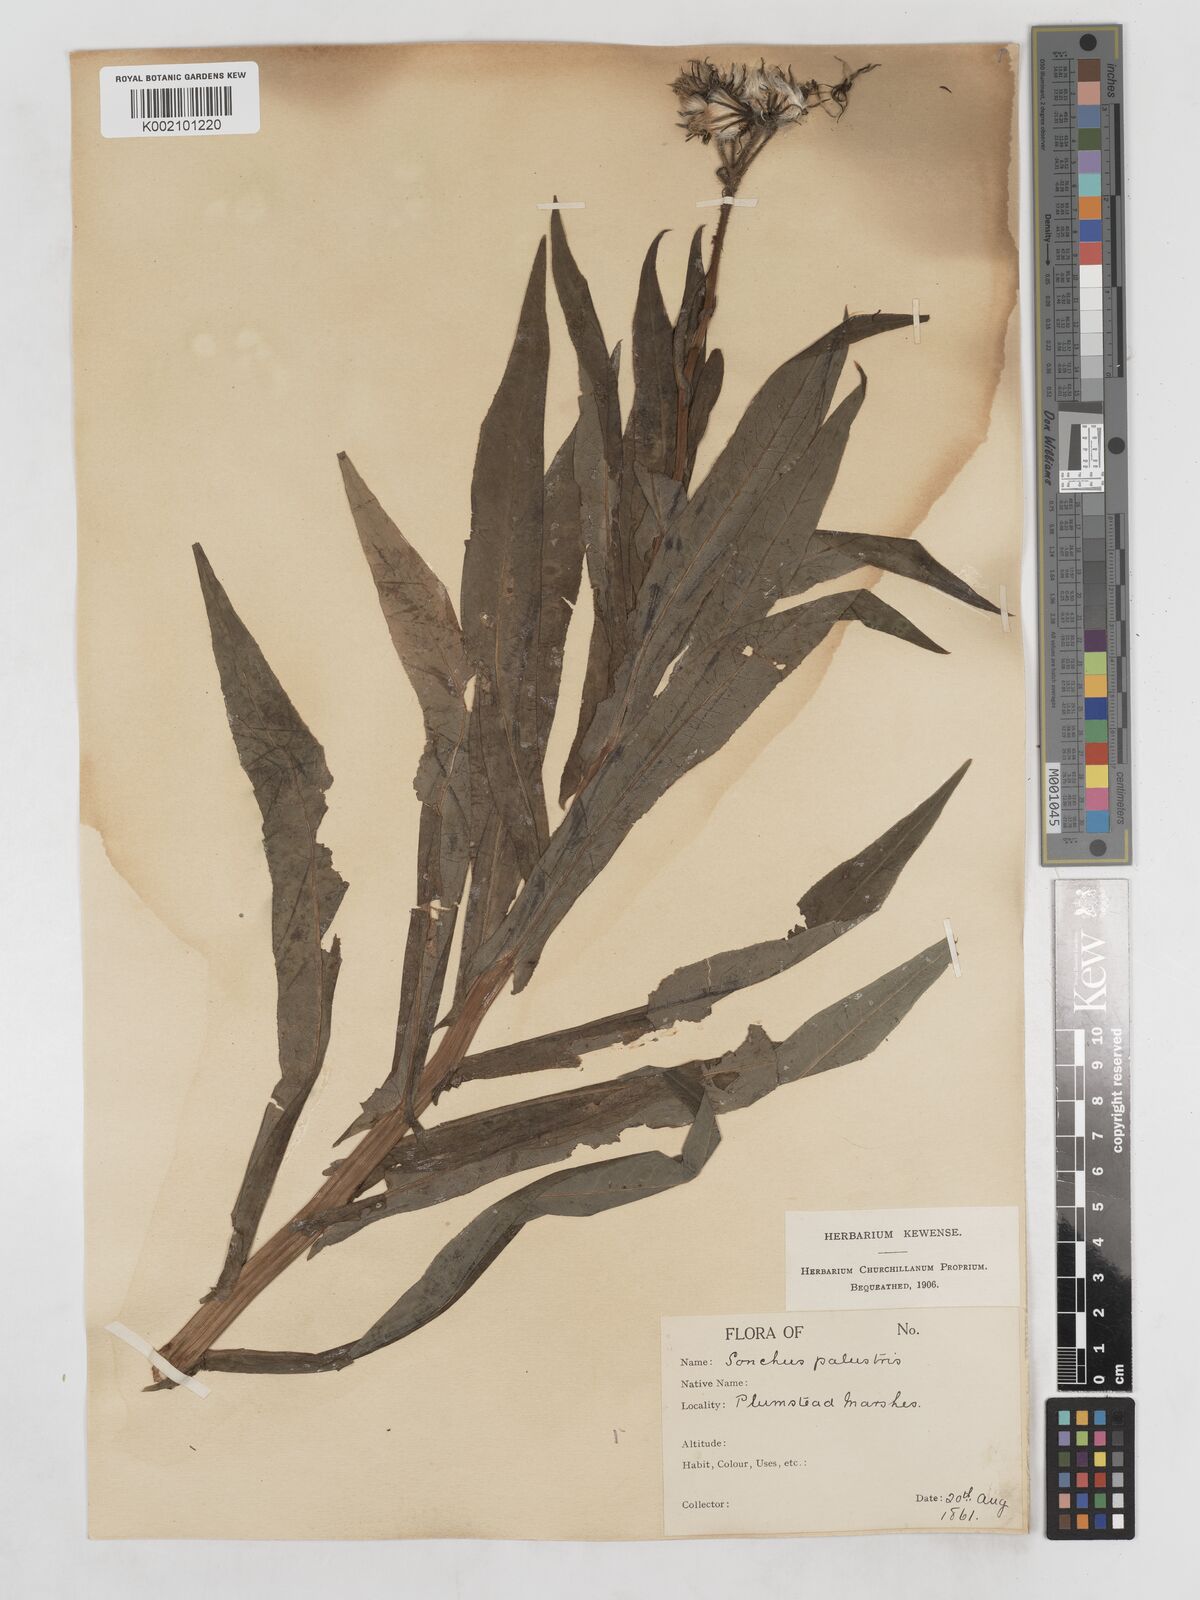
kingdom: Plantae
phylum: Tracheophyta
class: Magnoliopsida
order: Asterales
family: Asteraceae
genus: Sonchus
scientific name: Sonchus palustris
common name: Marsh sow-thistle
